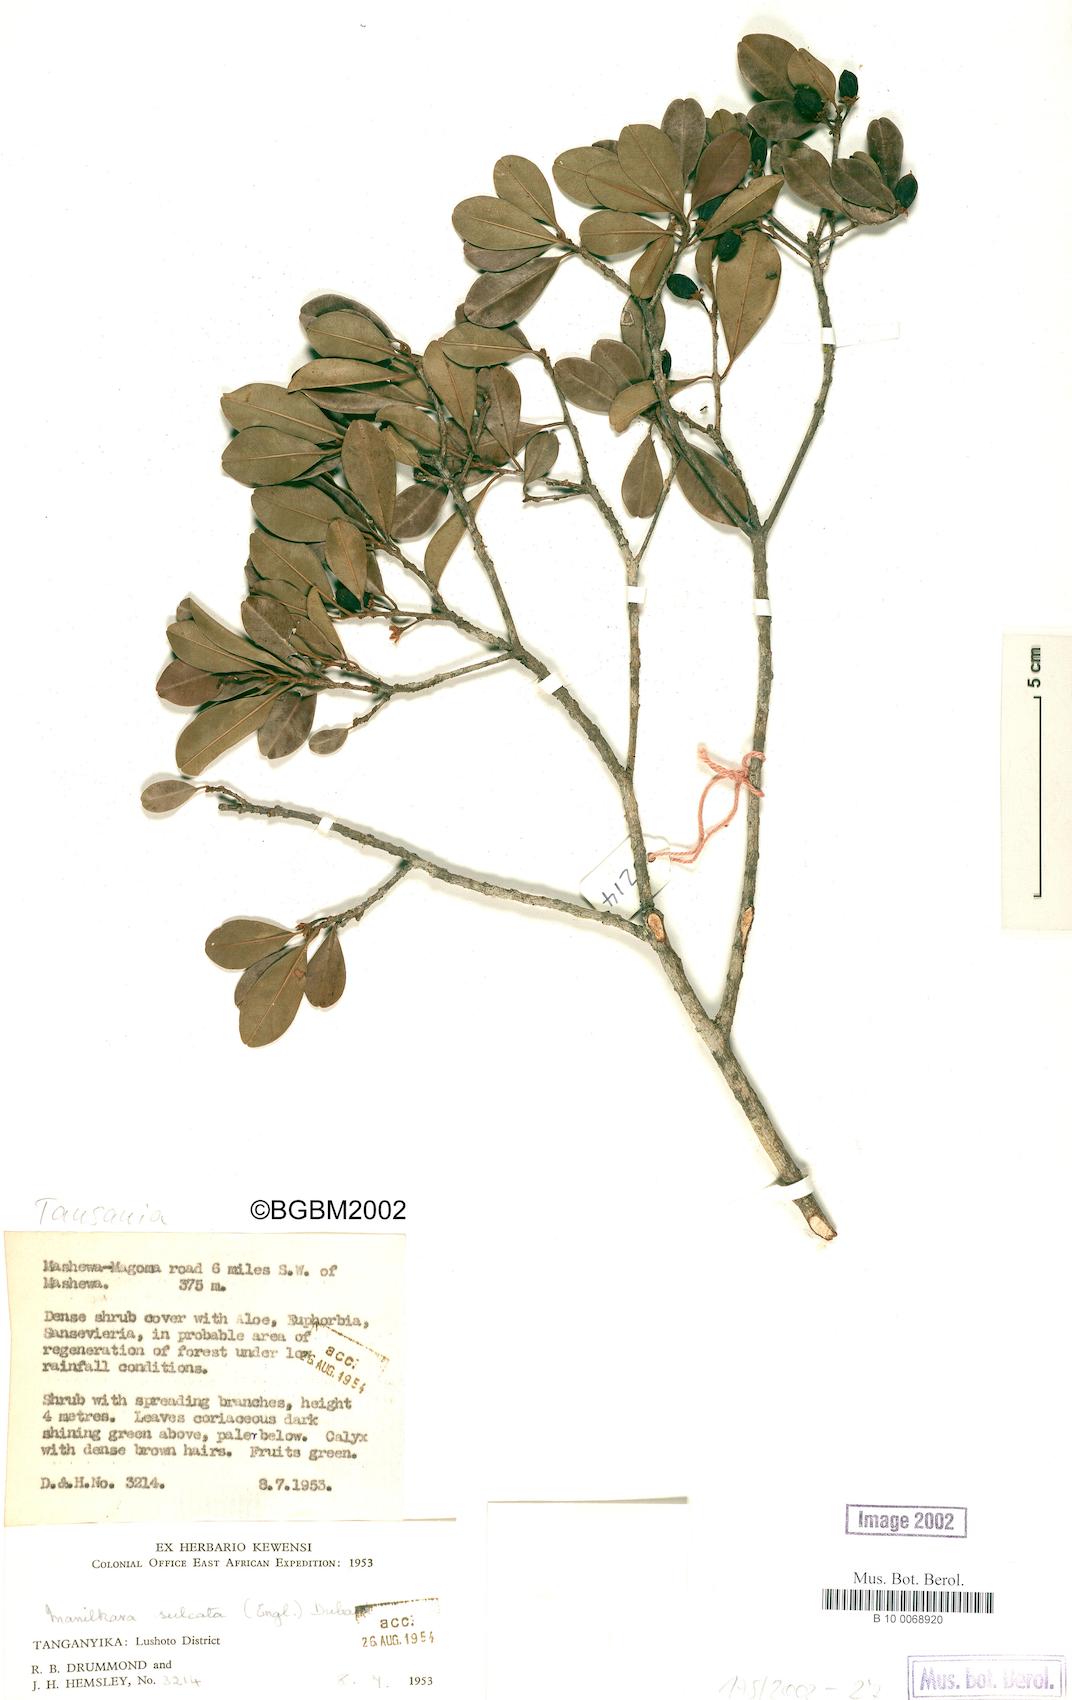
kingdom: Plantae
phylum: Tracheophyta
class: Magnoliopsida
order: Ericales
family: Sapotaceae
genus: Manilkara
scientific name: Manilkara sulcata
